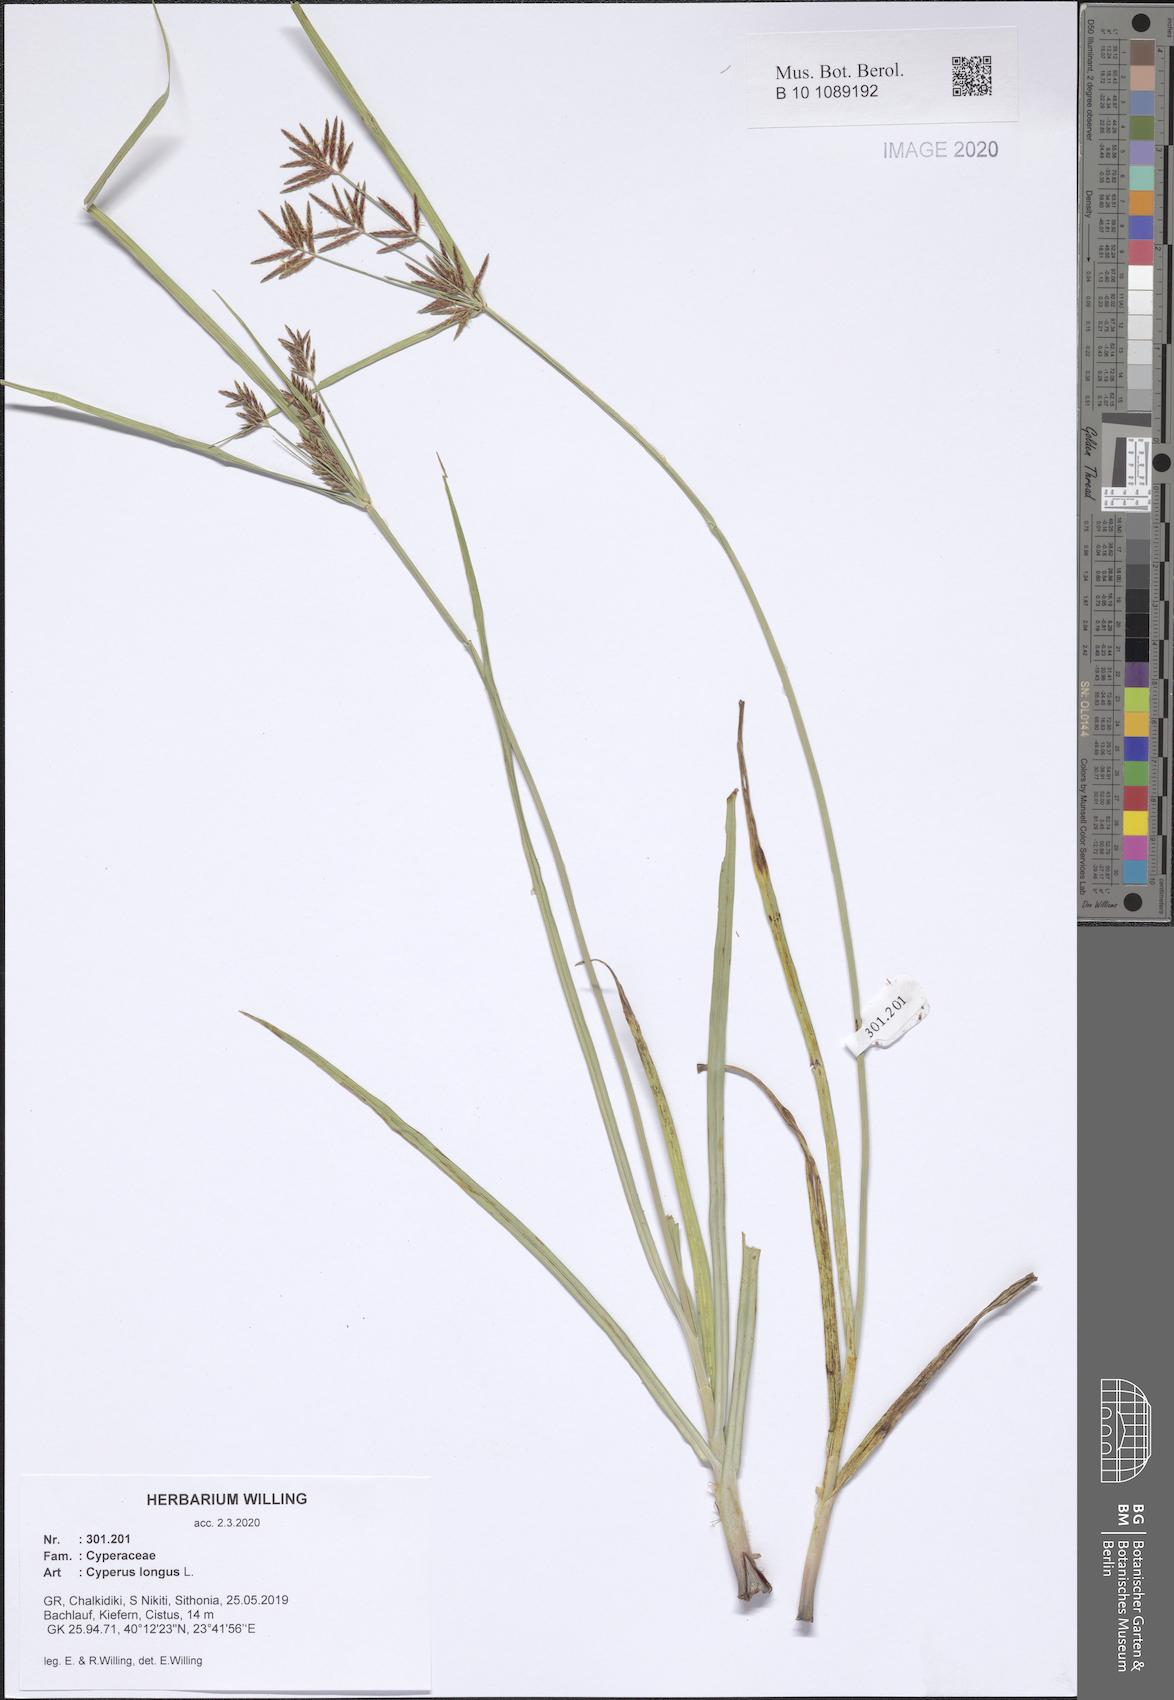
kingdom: Plantae
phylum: Tracheophyta
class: Liliopsida
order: Poales
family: Cyperaceae
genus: Cyperus
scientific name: Cyperus longus
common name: Galingale
